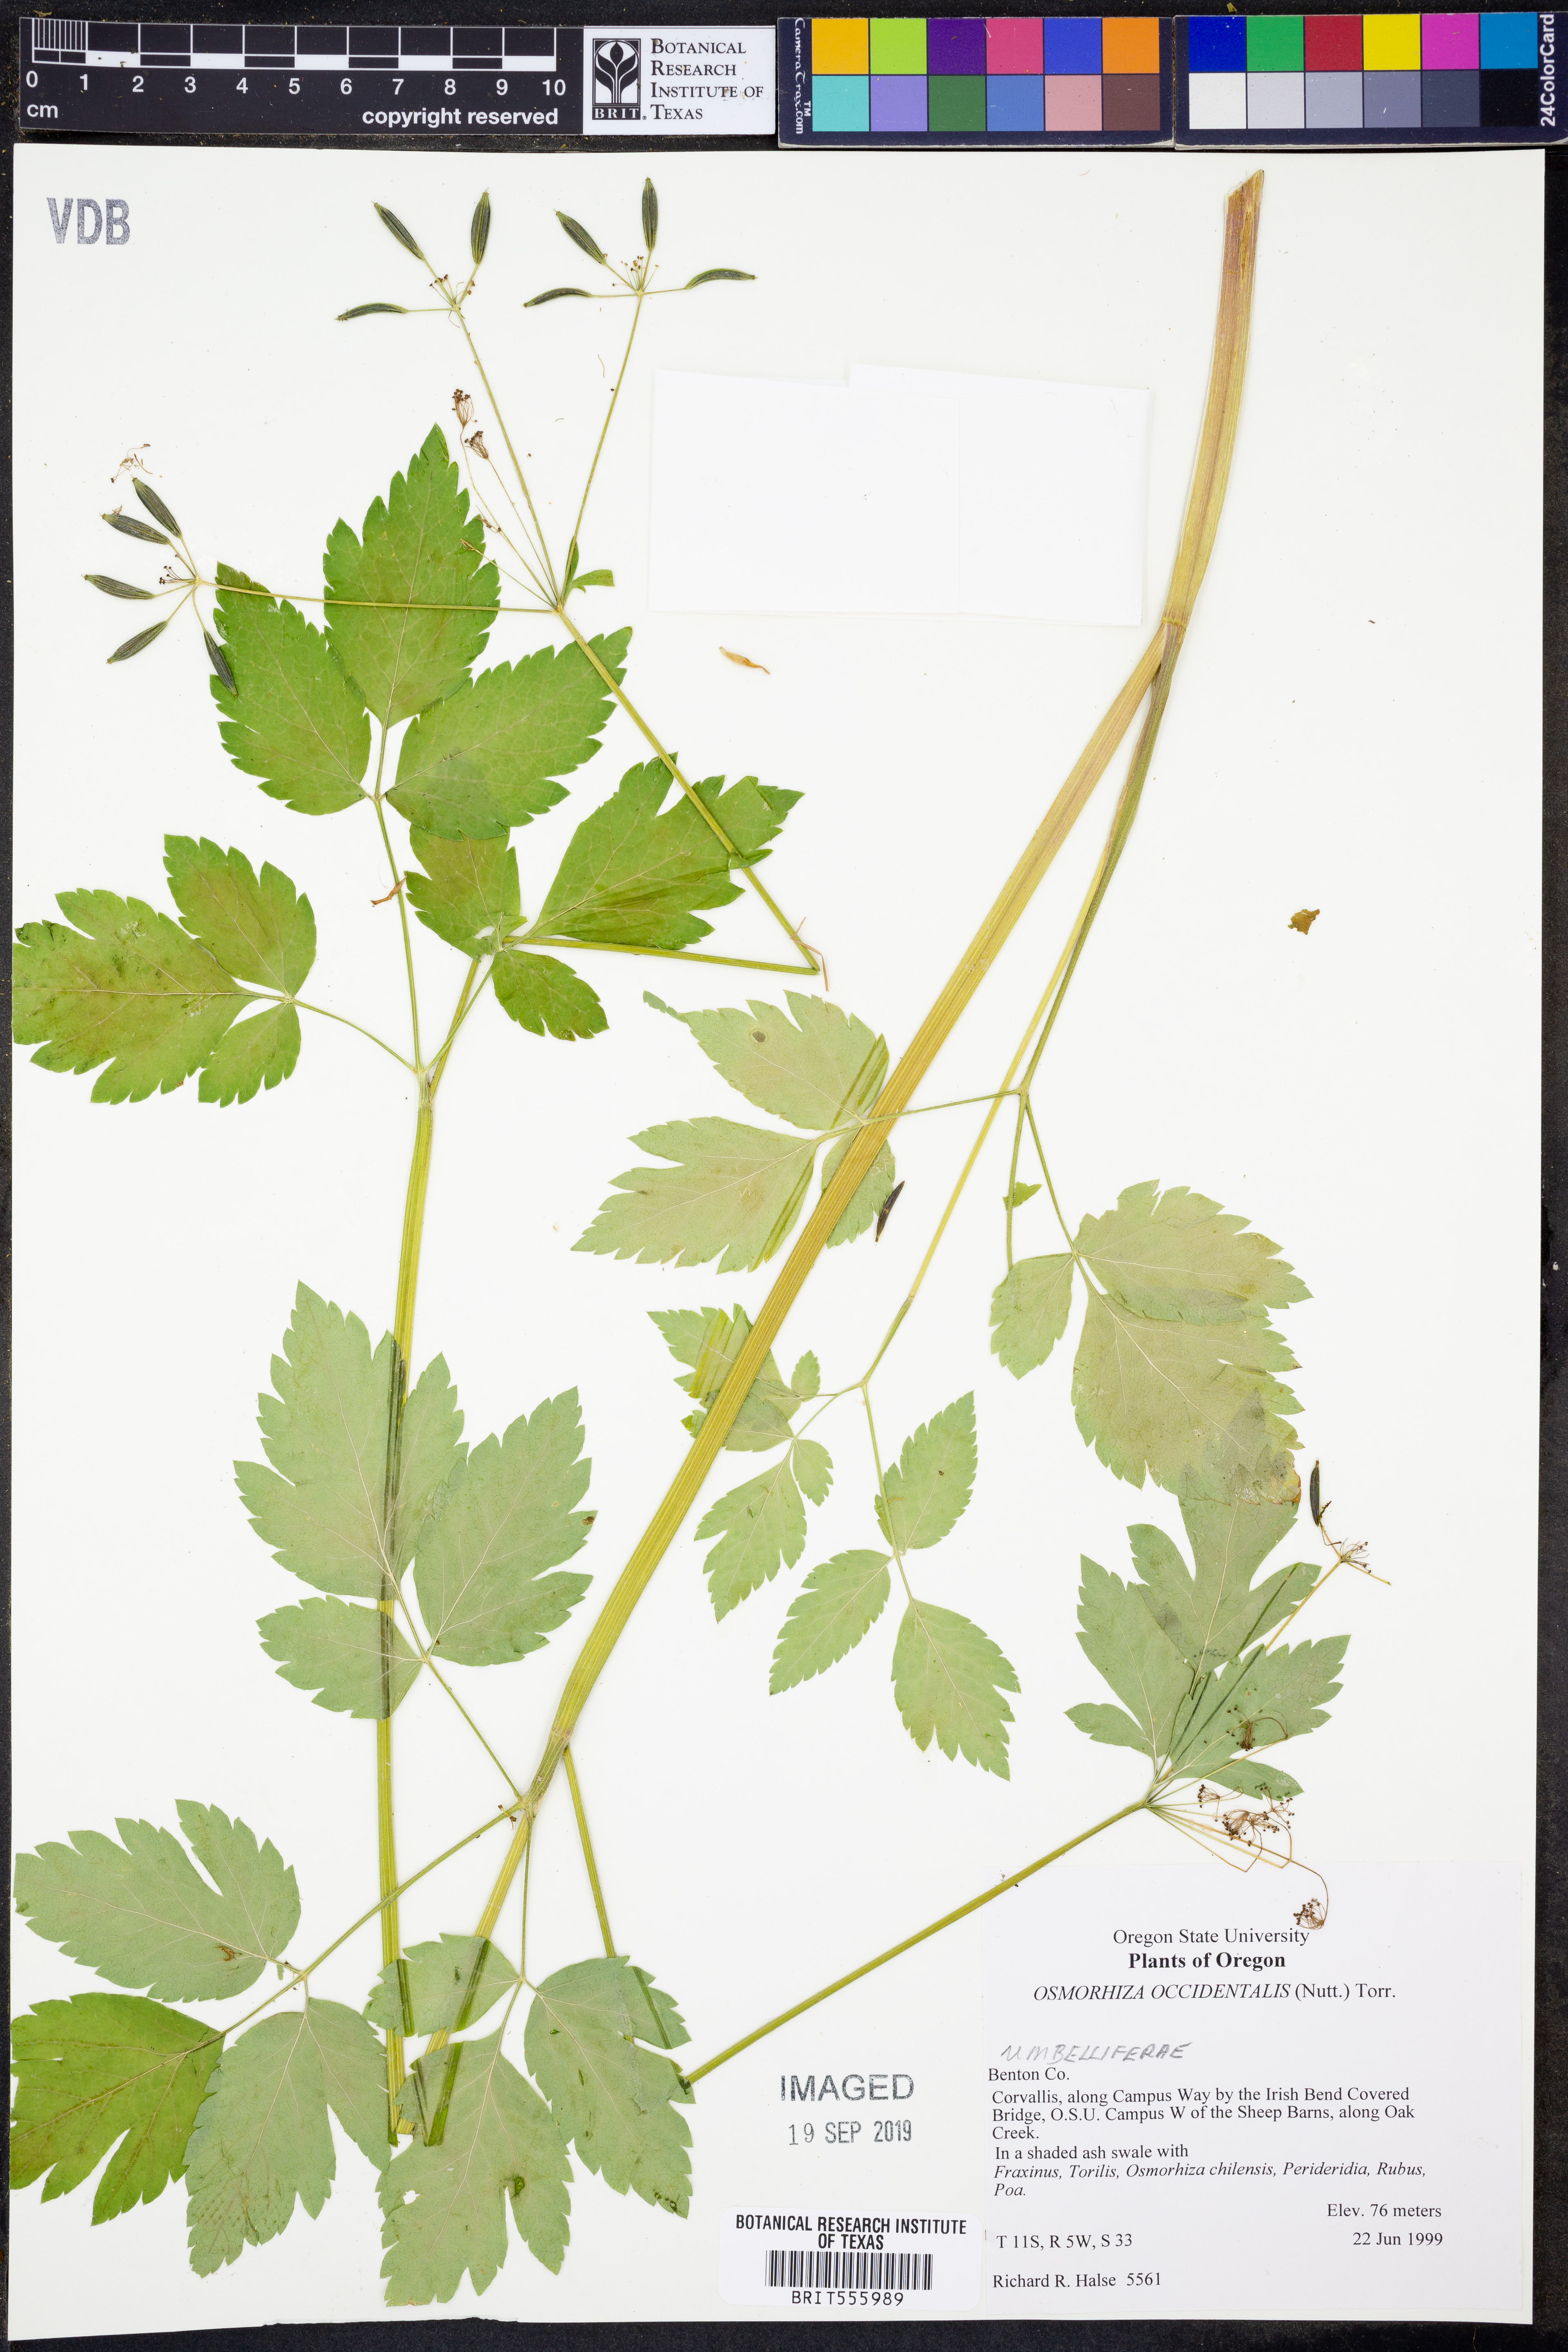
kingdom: Plantae
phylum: Tracheophyta
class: Magnoliopsida
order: Apiales
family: Apiaceae
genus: Osmorhiza
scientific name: Osmorhiza occidentalis
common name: Western sweet cicely
